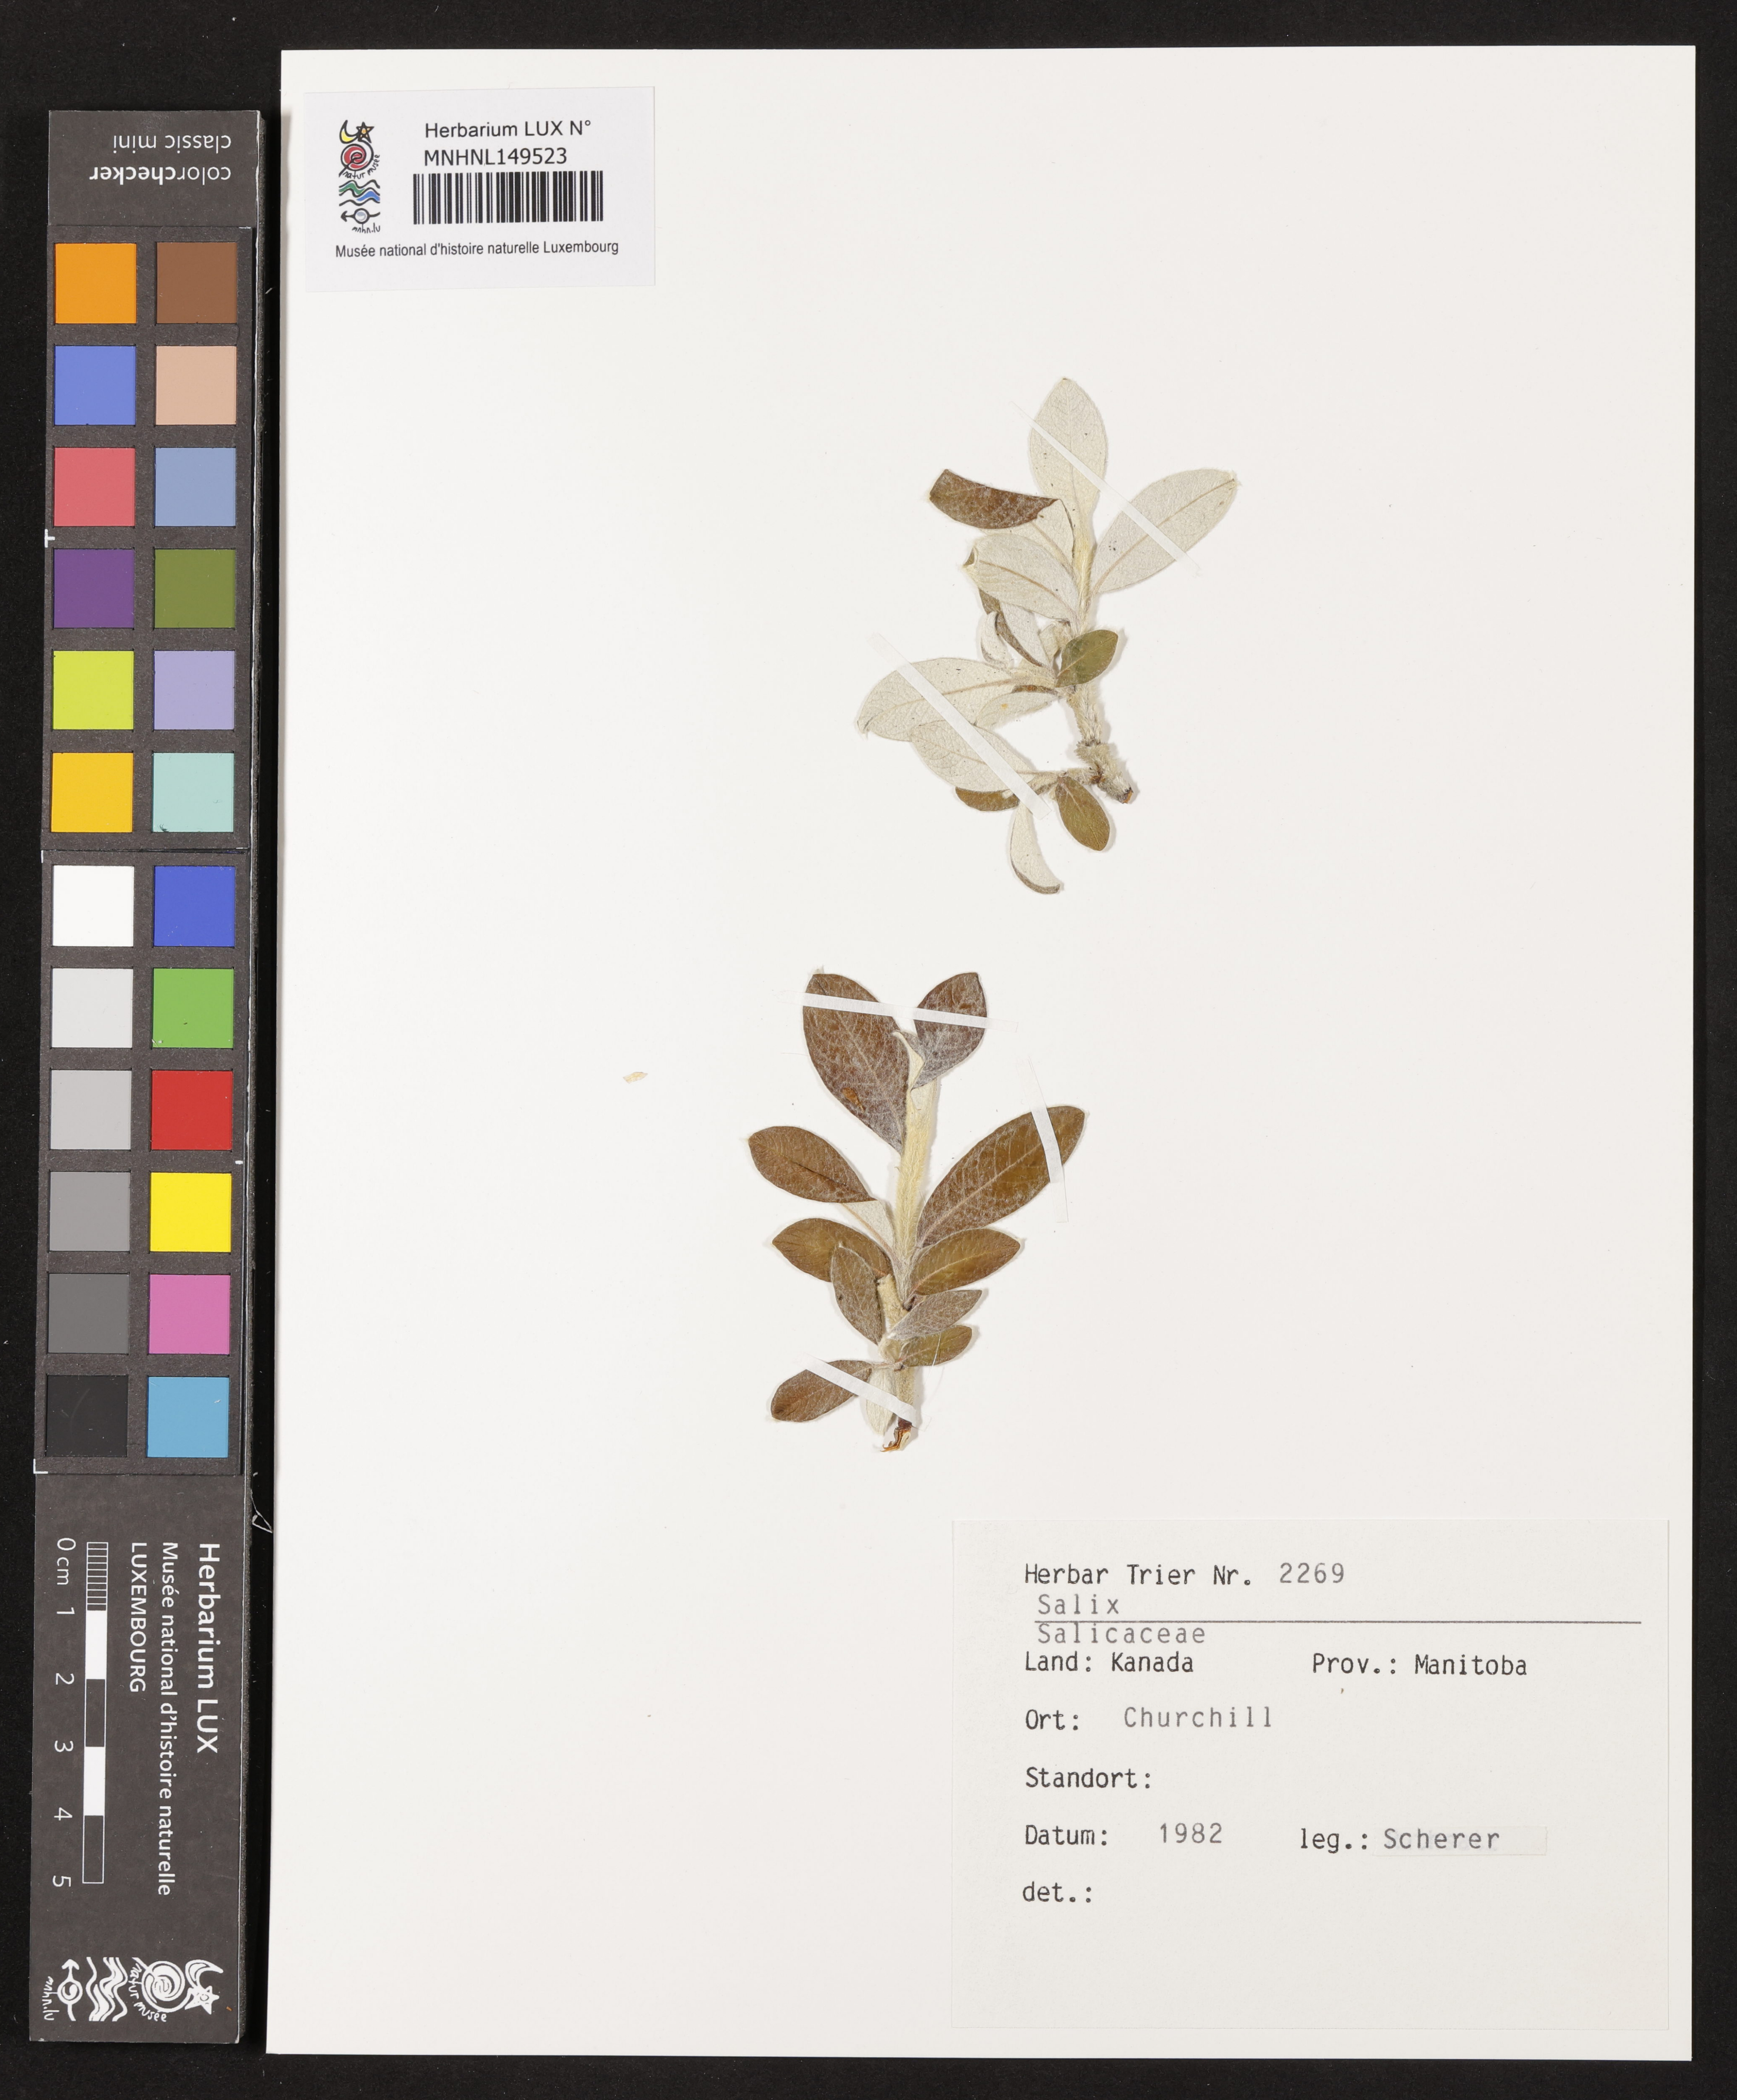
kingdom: Plantae
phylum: Tracheophyta
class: Magnoliopsida
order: Malpighiales
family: Salicaceae
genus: Salix
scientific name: Salix
